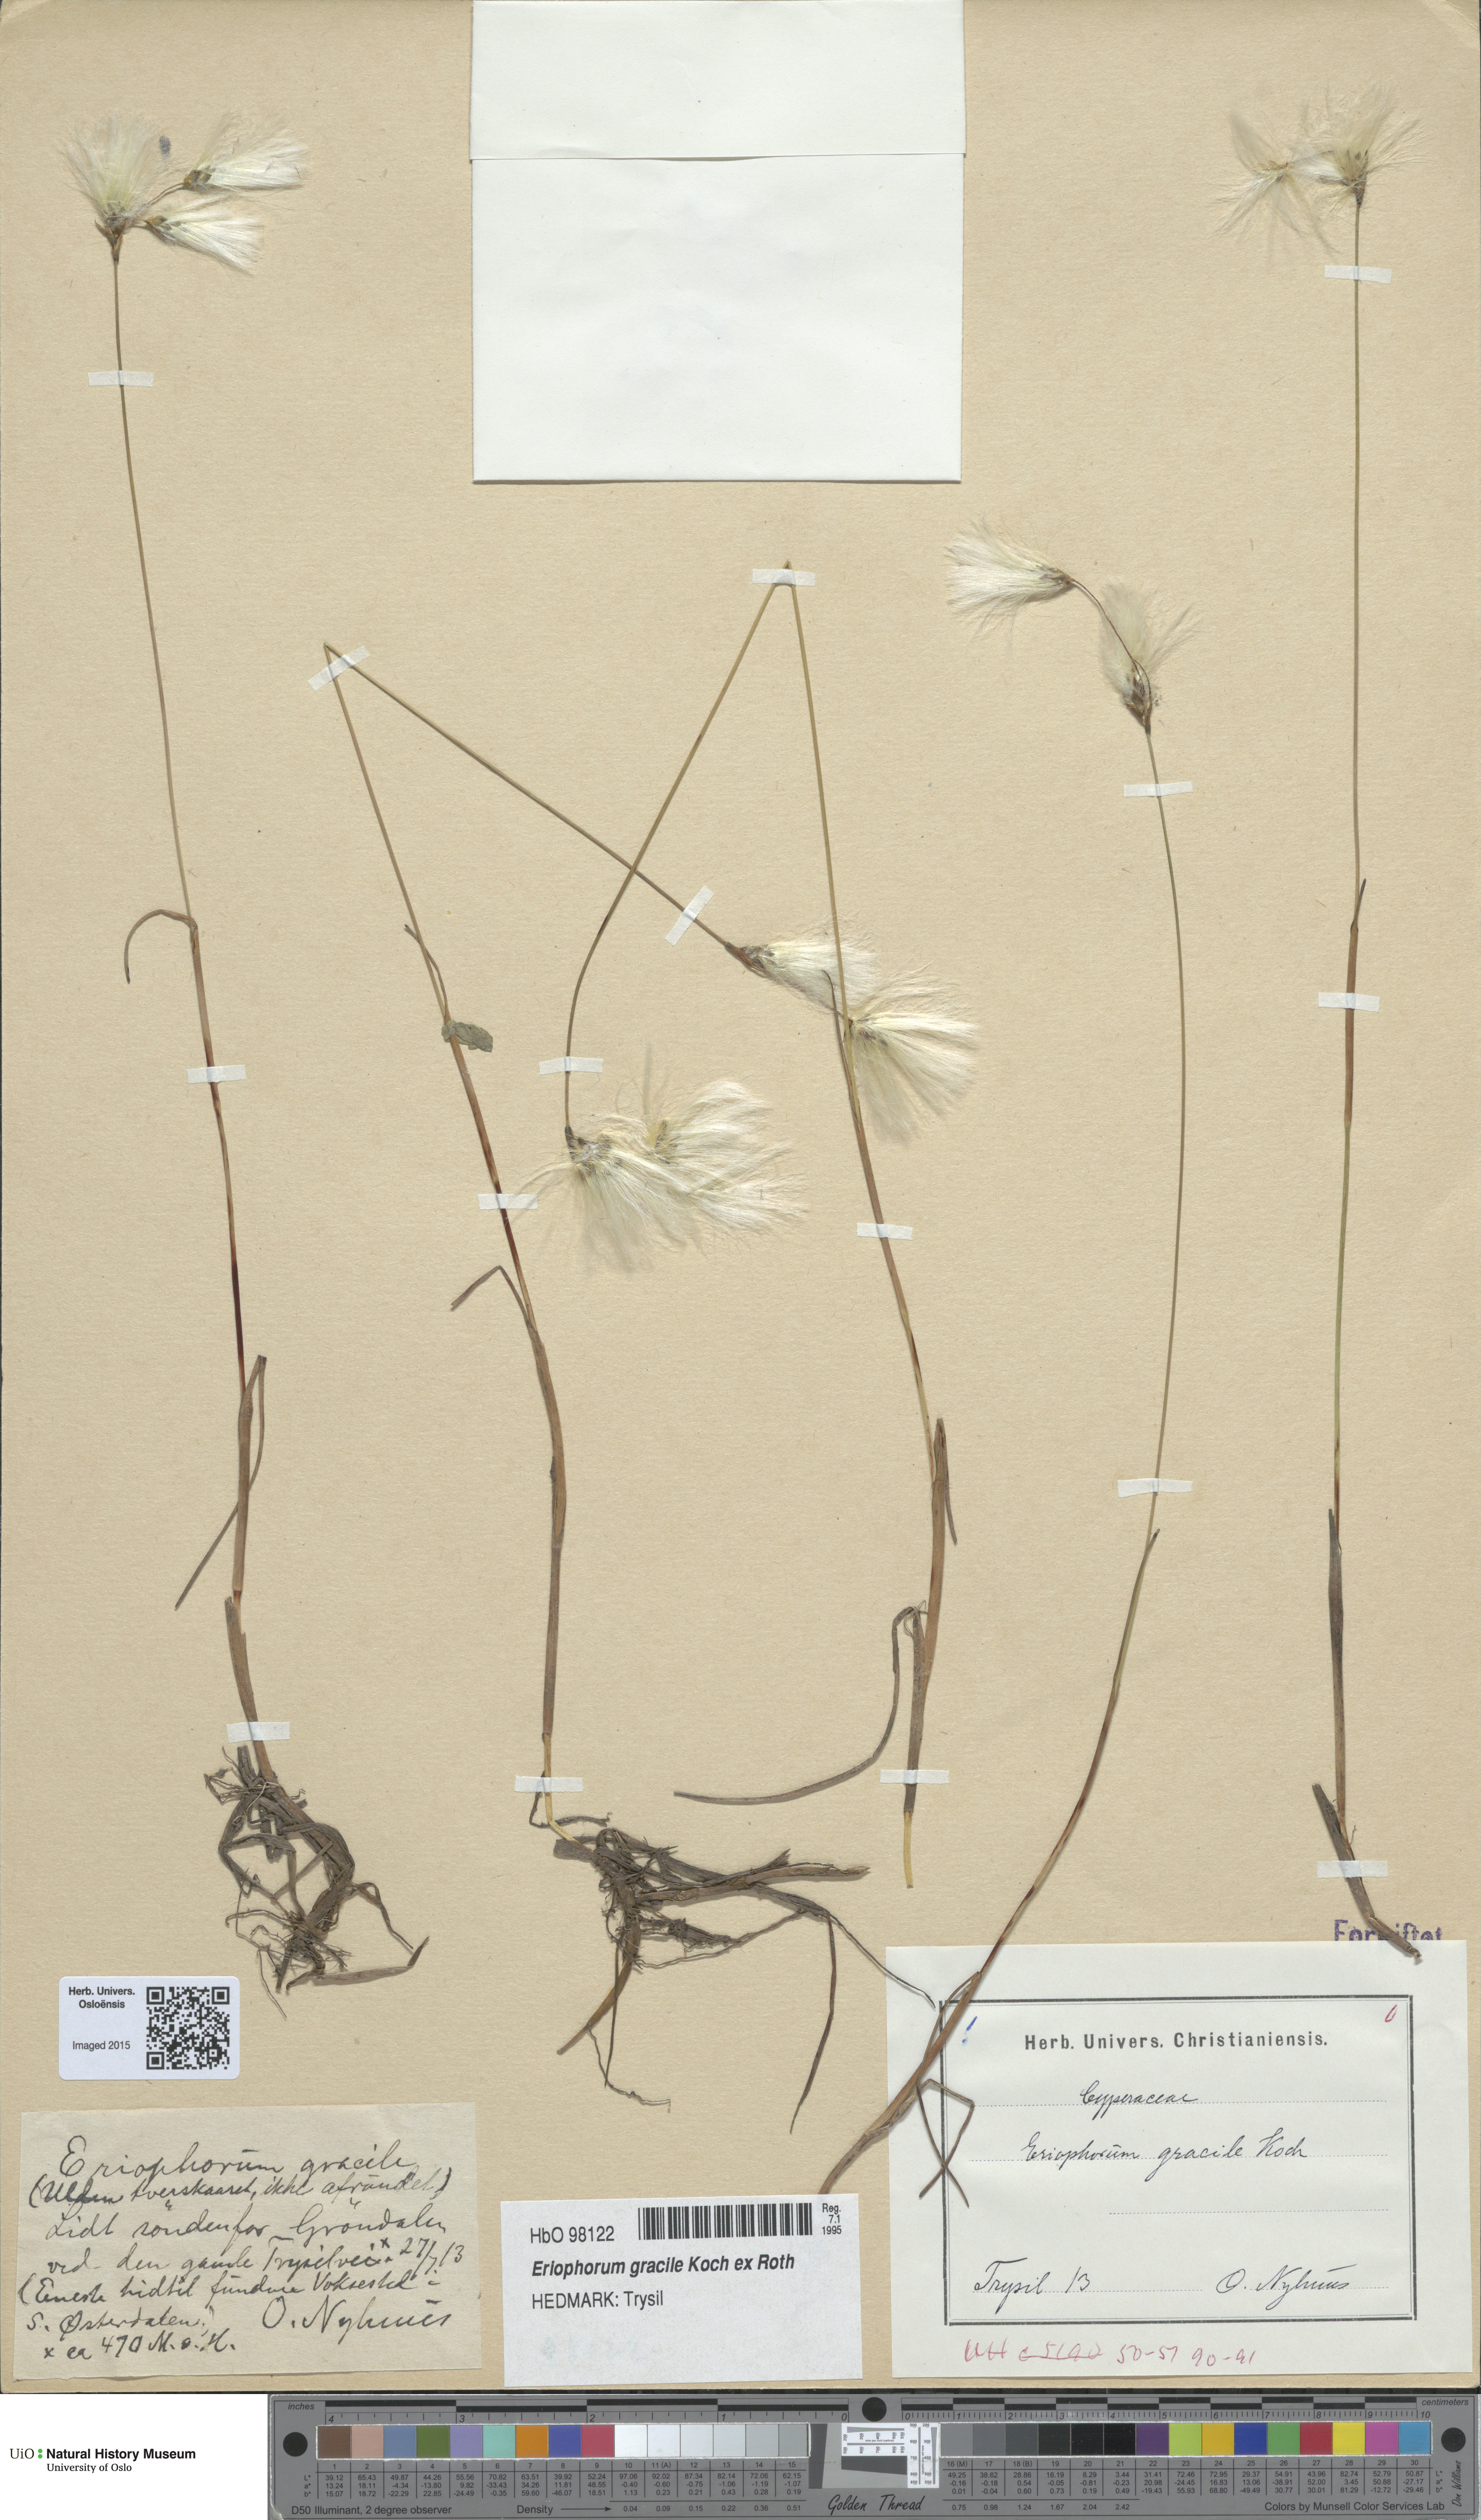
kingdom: Plantae
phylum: Tracheophyta
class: Liliopsida
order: Poales
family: Cyperaceae
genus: Eriophorum
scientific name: Eriophorum gracile
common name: Slender cottongrass
